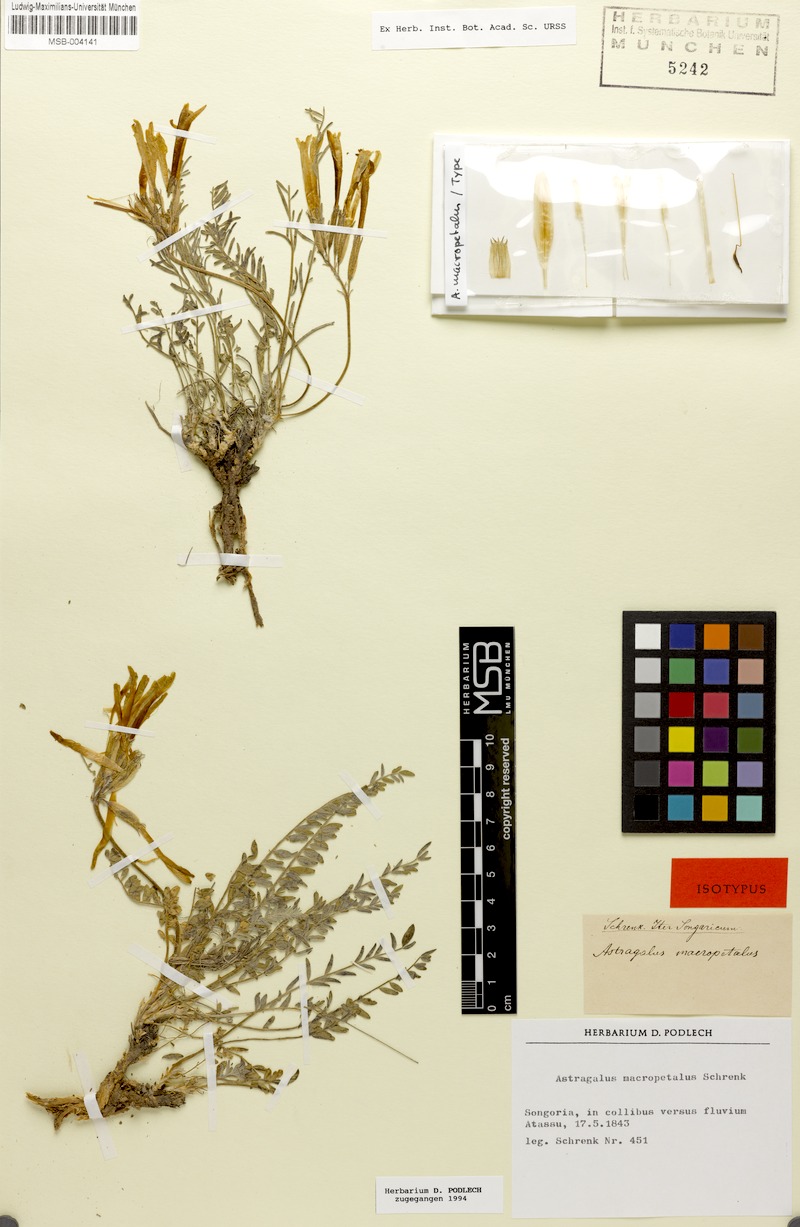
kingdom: Plantae
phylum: Tracheophyta
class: Magnoliopsida
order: Fabales
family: Fabaceae
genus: Astragalus
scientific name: Astragalus macropetalus
